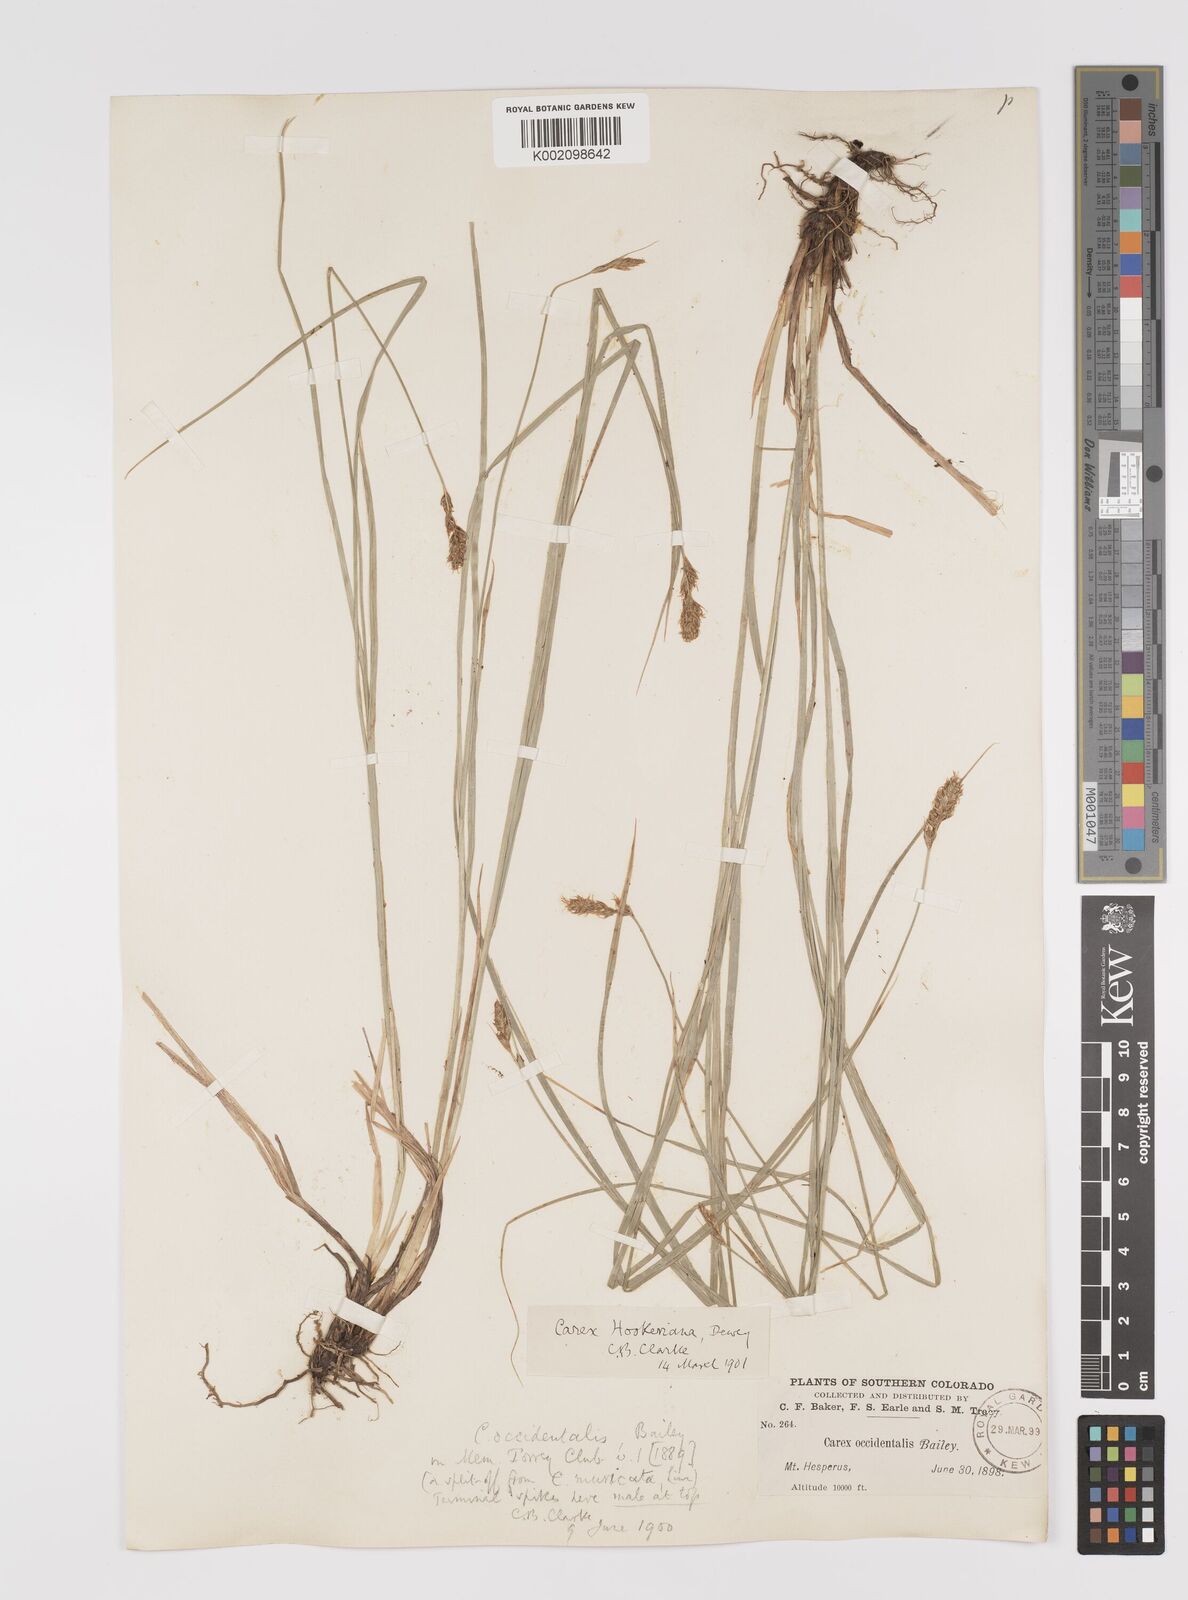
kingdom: Plantae
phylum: Tracheophyta
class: Liliopsida
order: Poales
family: Cyperaceae
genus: Carex
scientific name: Carex occidentalis
